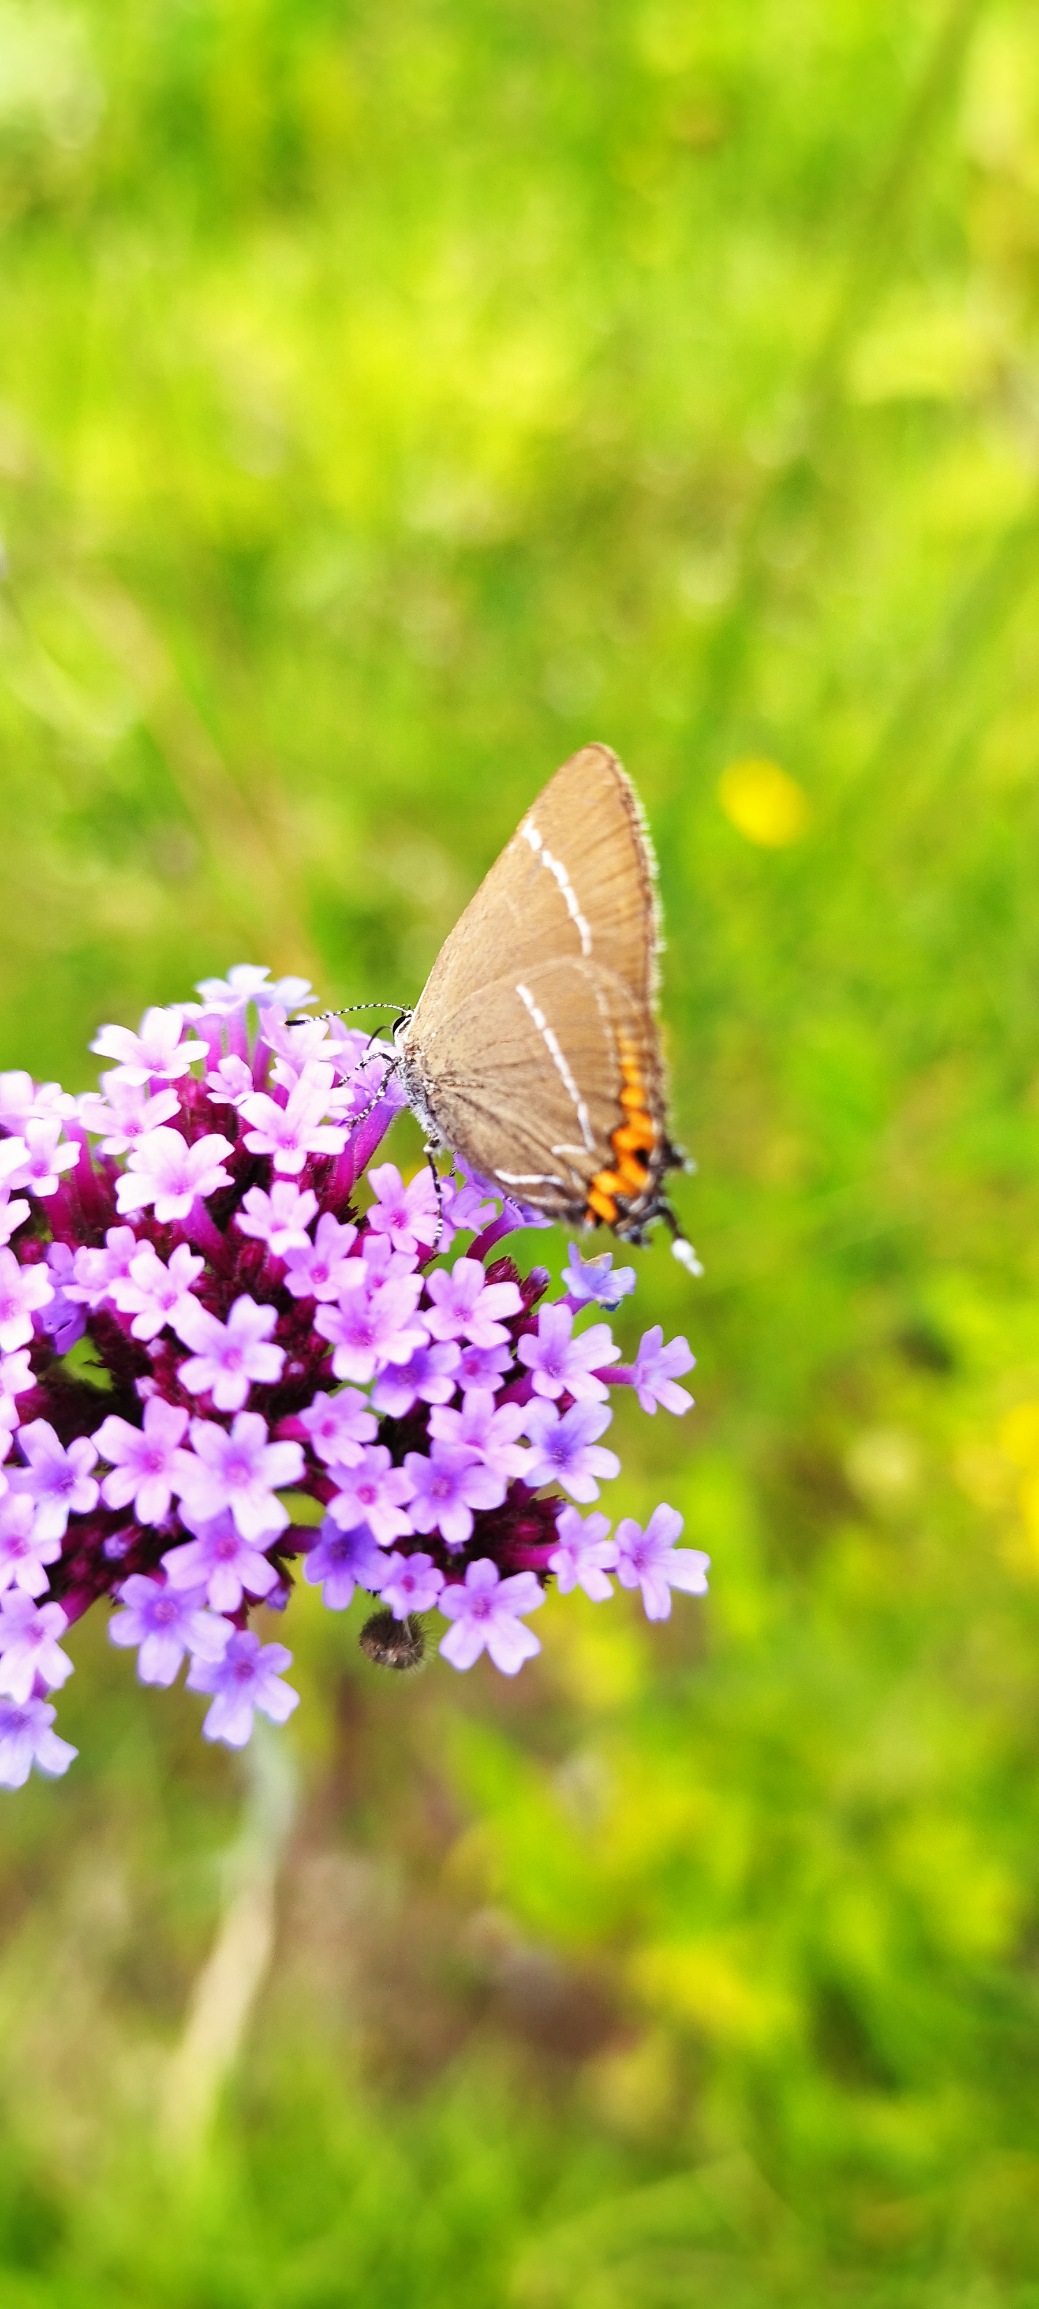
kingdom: Animalia
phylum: Arthropoda
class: Insecta
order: Lepidoptera
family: Lycaenidae
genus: Satyrium
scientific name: Satyrium w-album
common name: Det hvide W
